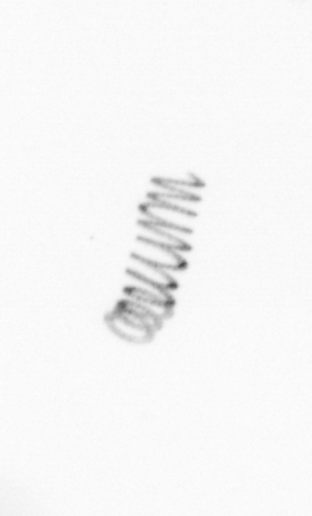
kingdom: Chromista
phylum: Ochrophyta
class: Bacillariophyceae
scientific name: Bacillariophyceae
